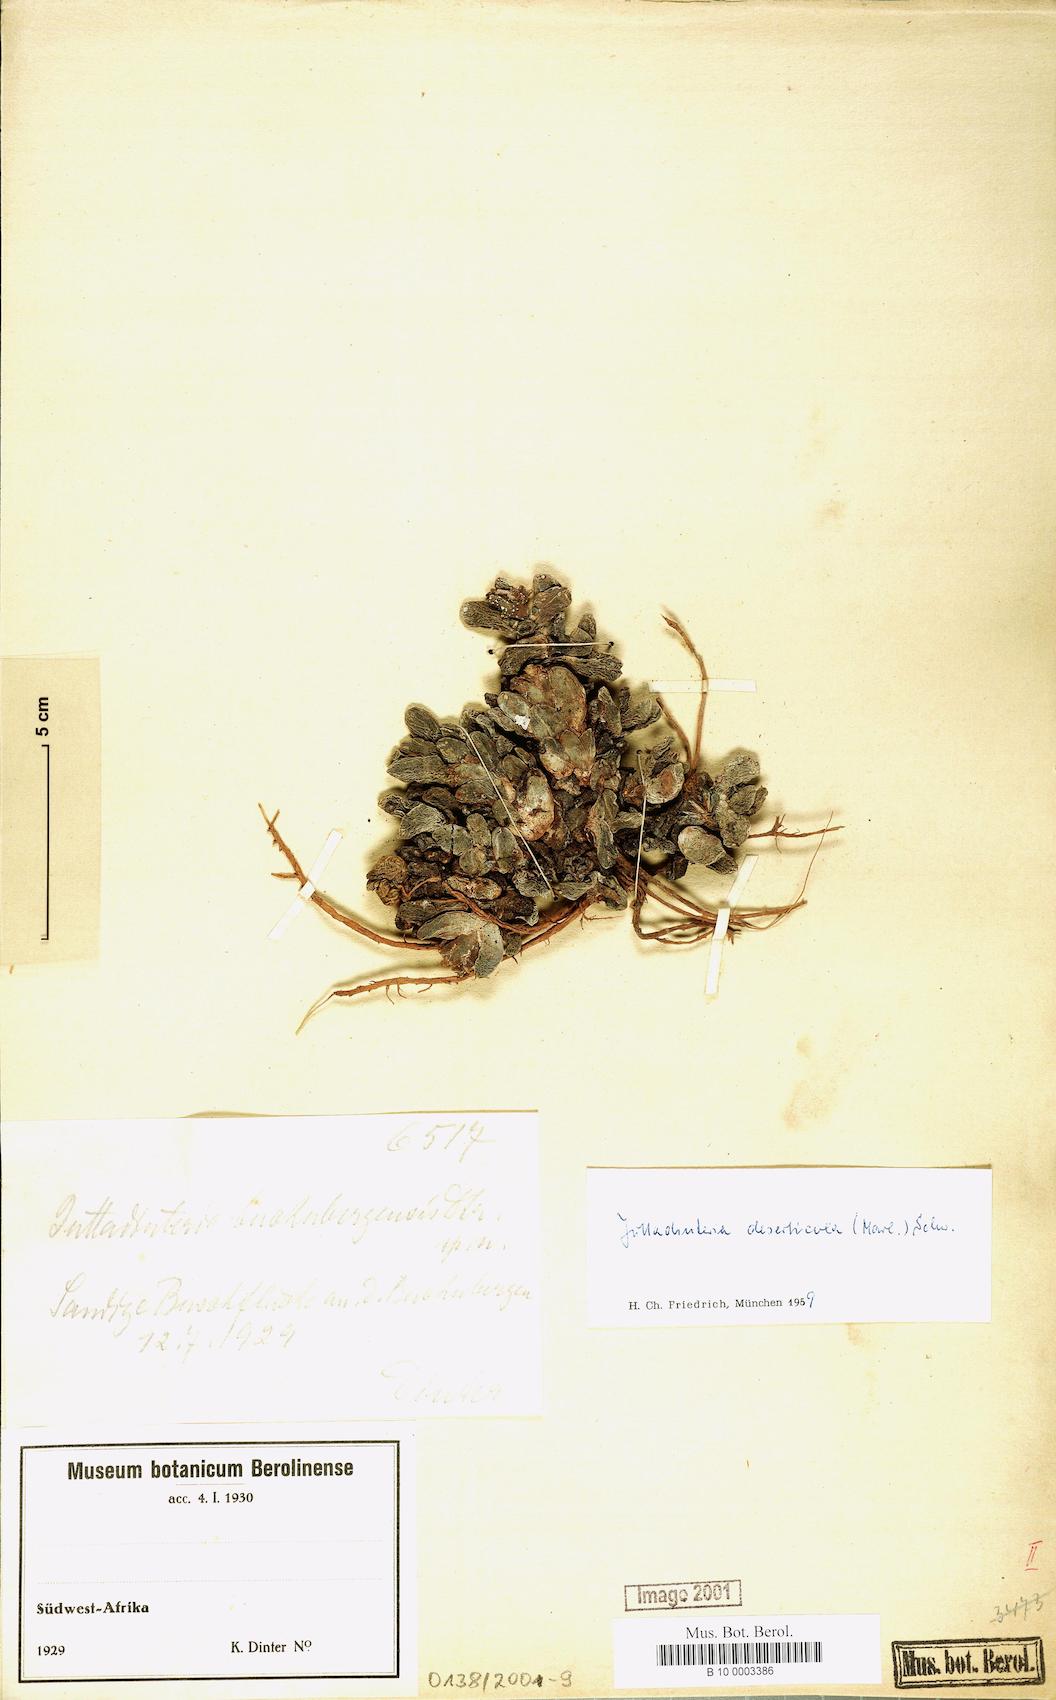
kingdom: Plantae
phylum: Tracheophyta
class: Magnoliopsida
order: Caryophyllales
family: Aizoaceae
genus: Juttadinteria
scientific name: Juttadinteria deserticola
